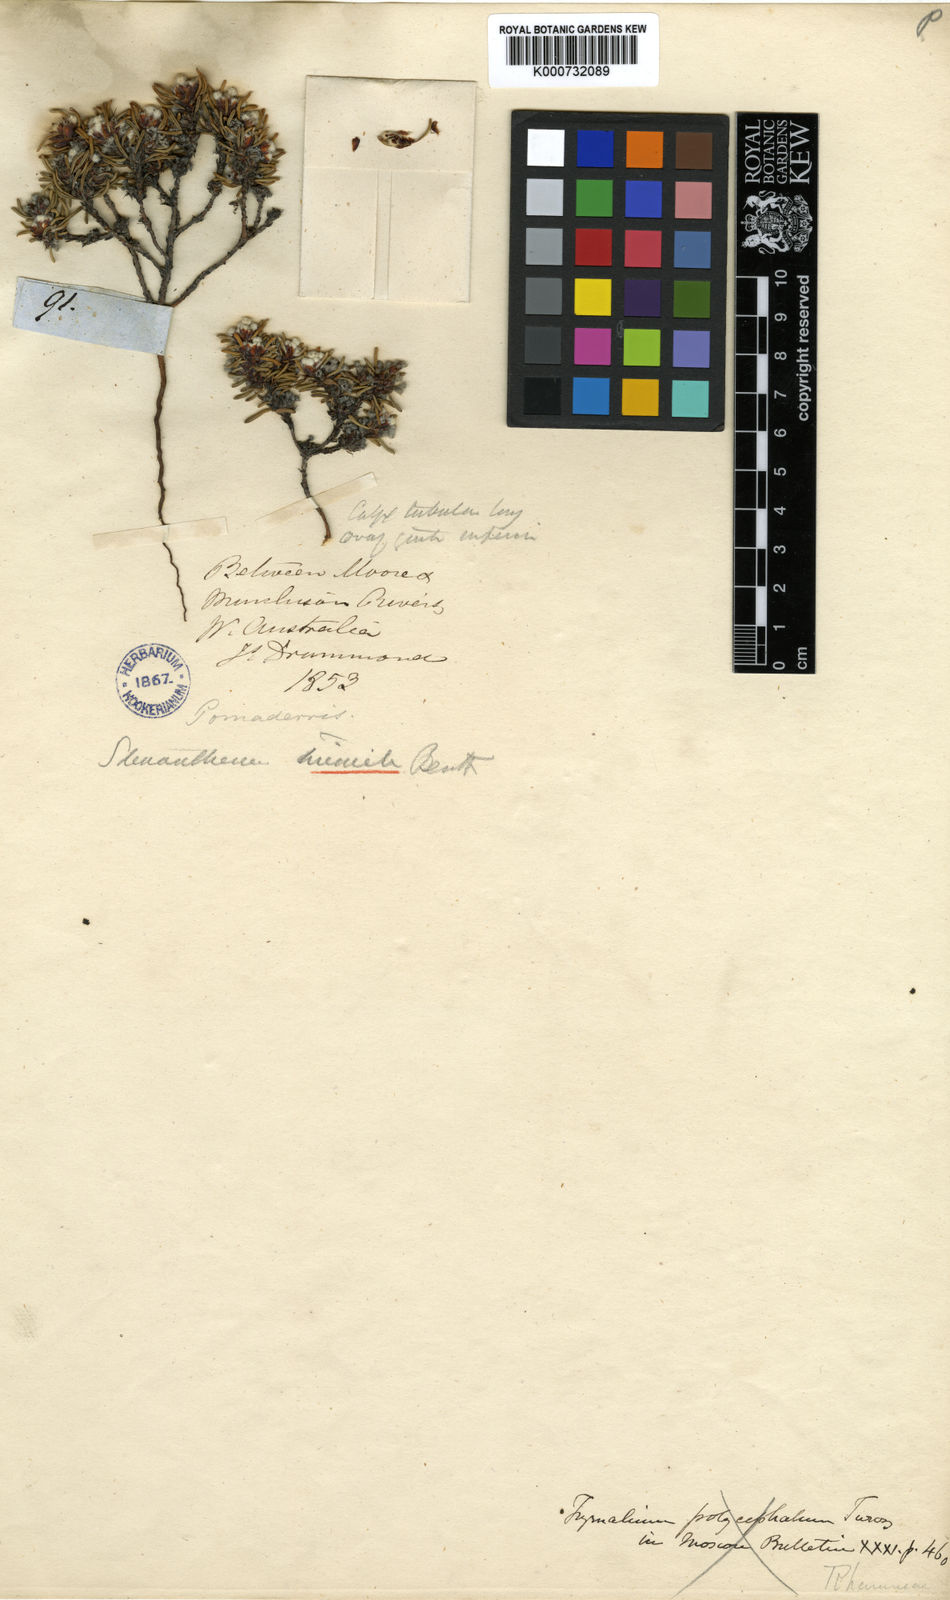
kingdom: Plantae
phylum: Tracheophyta
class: Magnoliopsida
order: Rosales
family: Rhamnaceae
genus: Stenanthemum
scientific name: Stenanthemum humile
